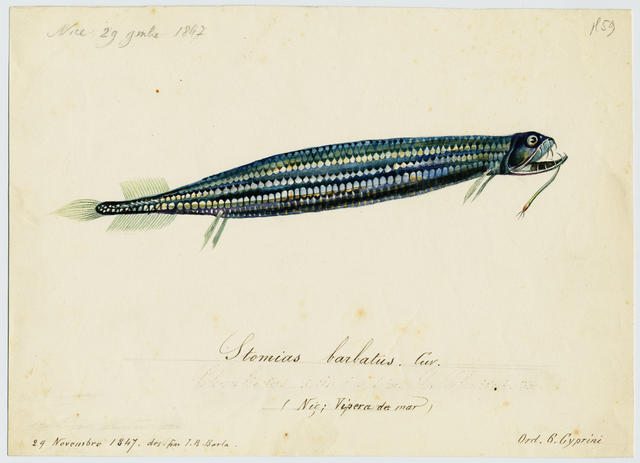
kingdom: Animalia
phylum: Chordata
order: Stomiiformes
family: Stomiidae
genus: Stomias
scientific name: Stomias boa
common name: Boa dragonfish
